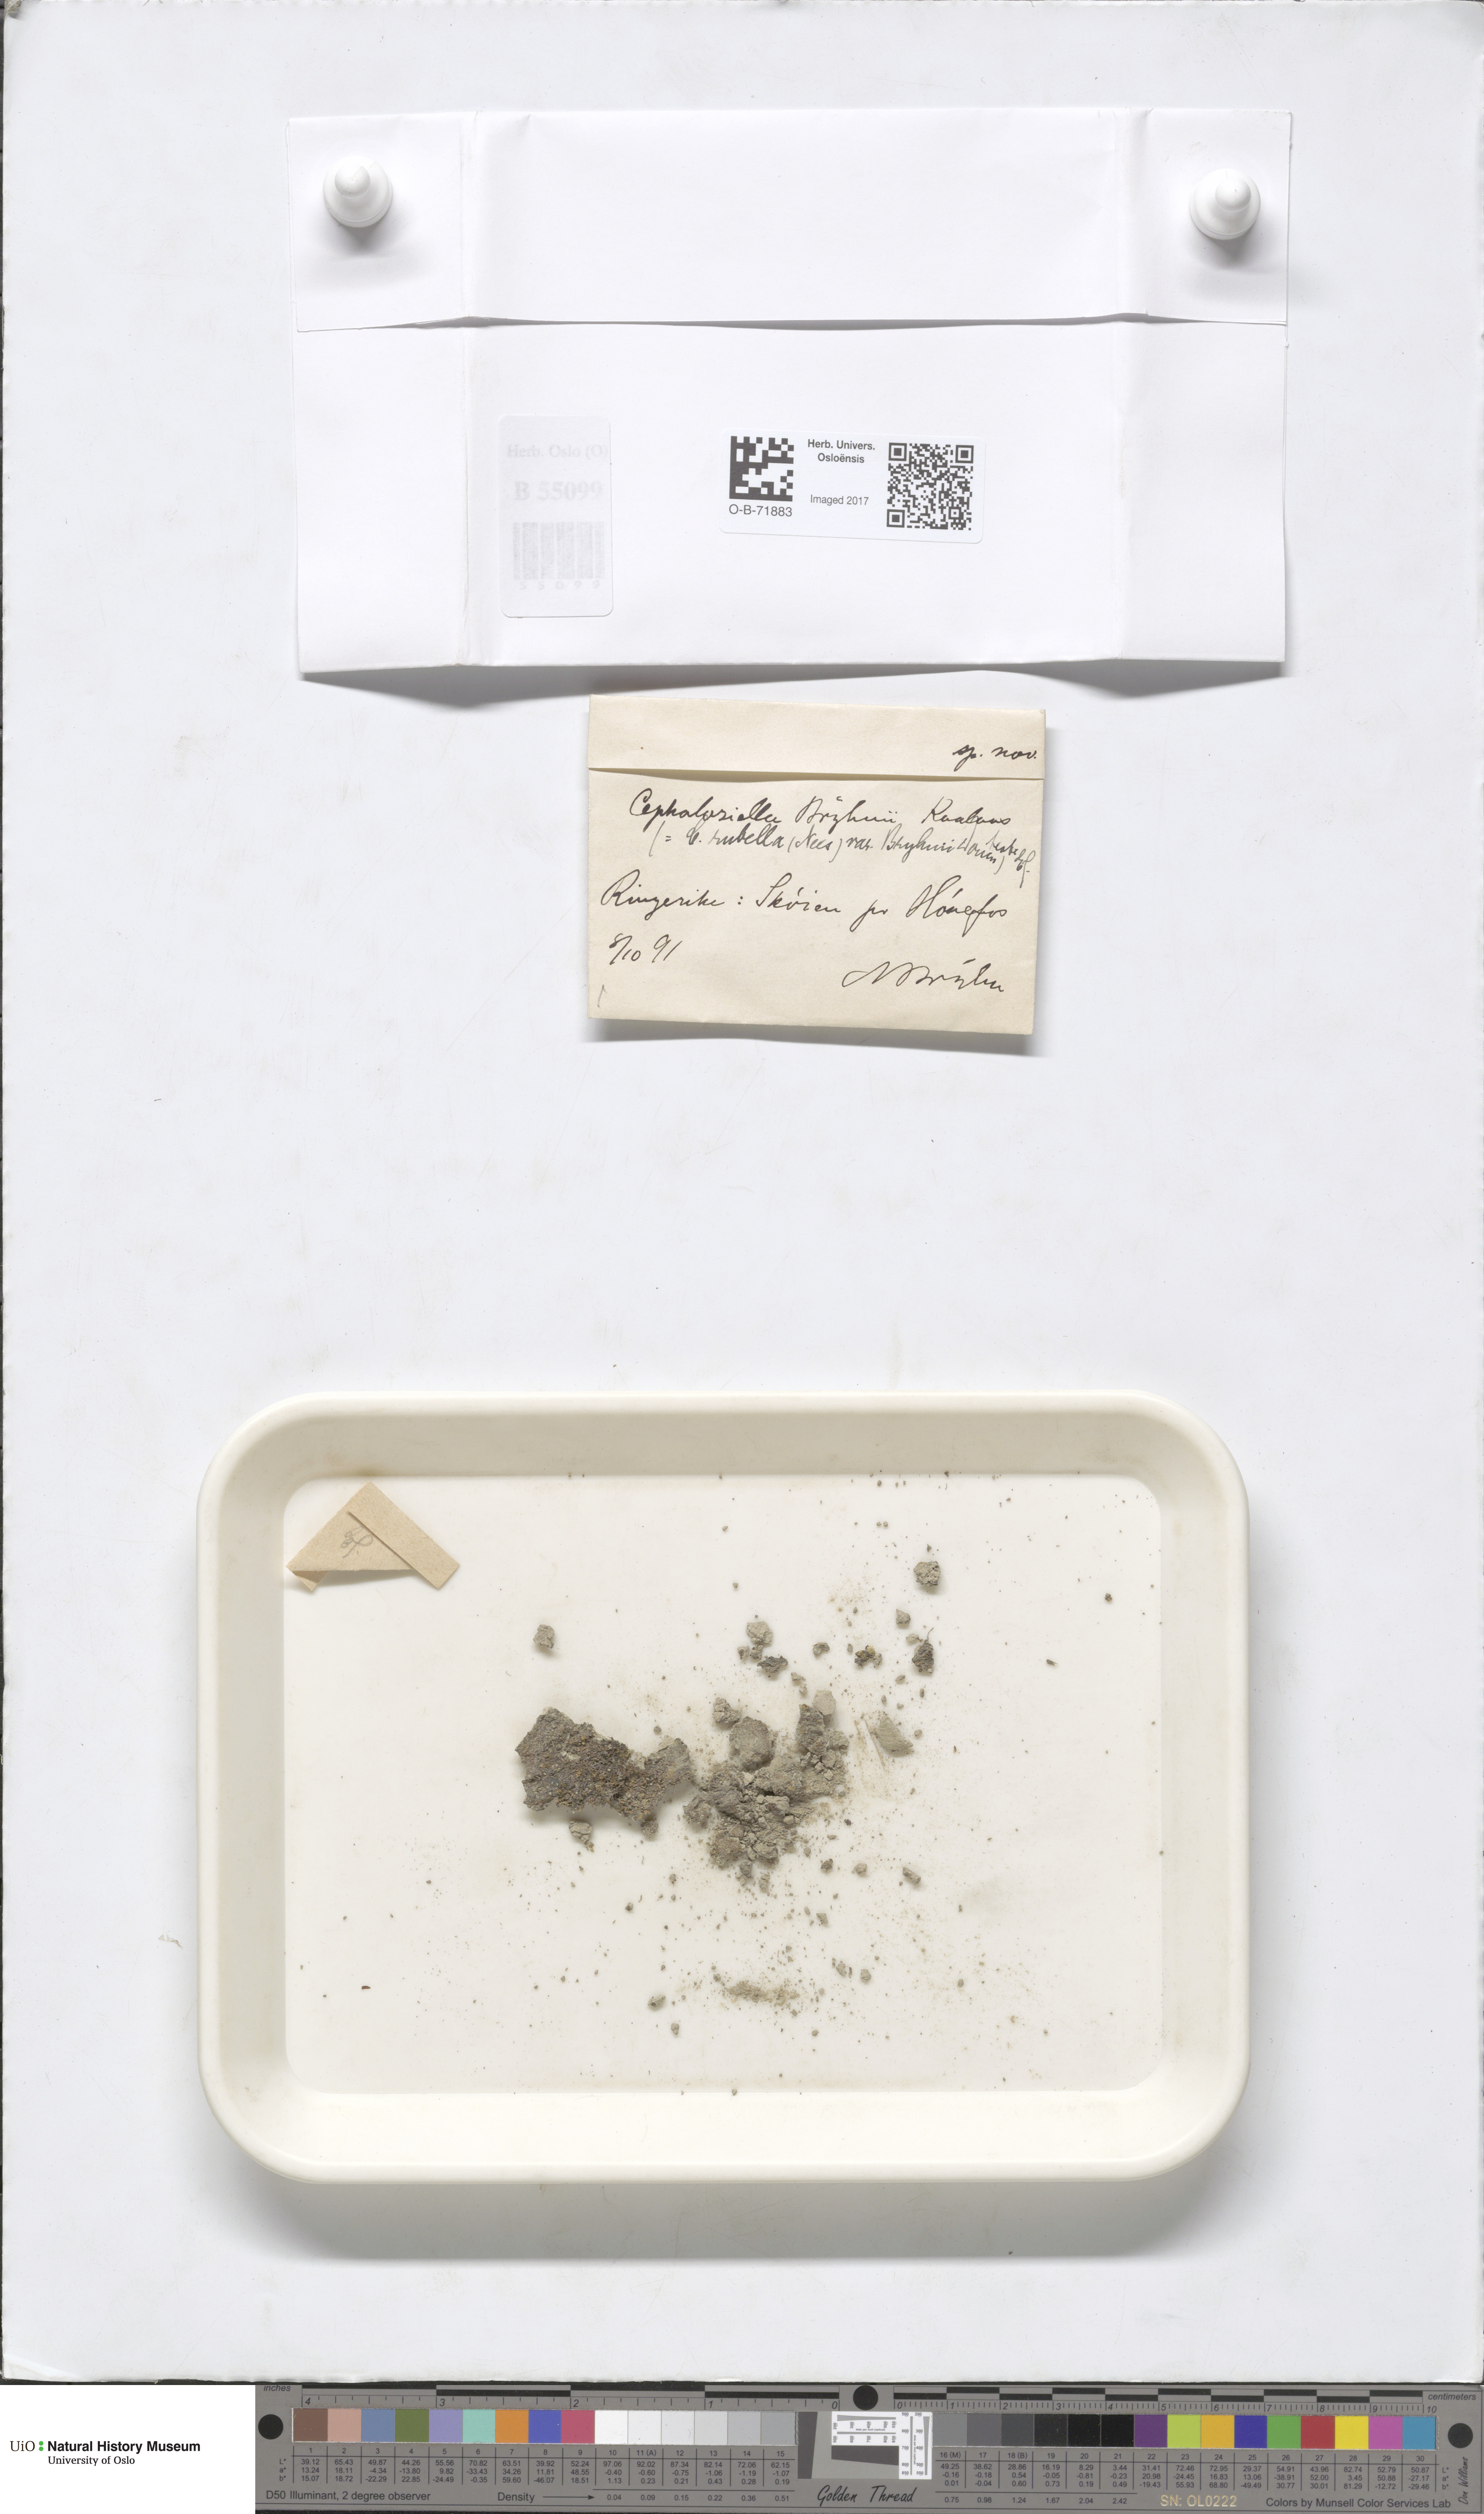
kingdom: Plantae
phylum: Marchantiophyta
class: Jungermanniopsida
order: Jungermanniales
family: Cephaloziellaceae
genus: Cephaloziella
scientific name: Cephaloziella rubella
